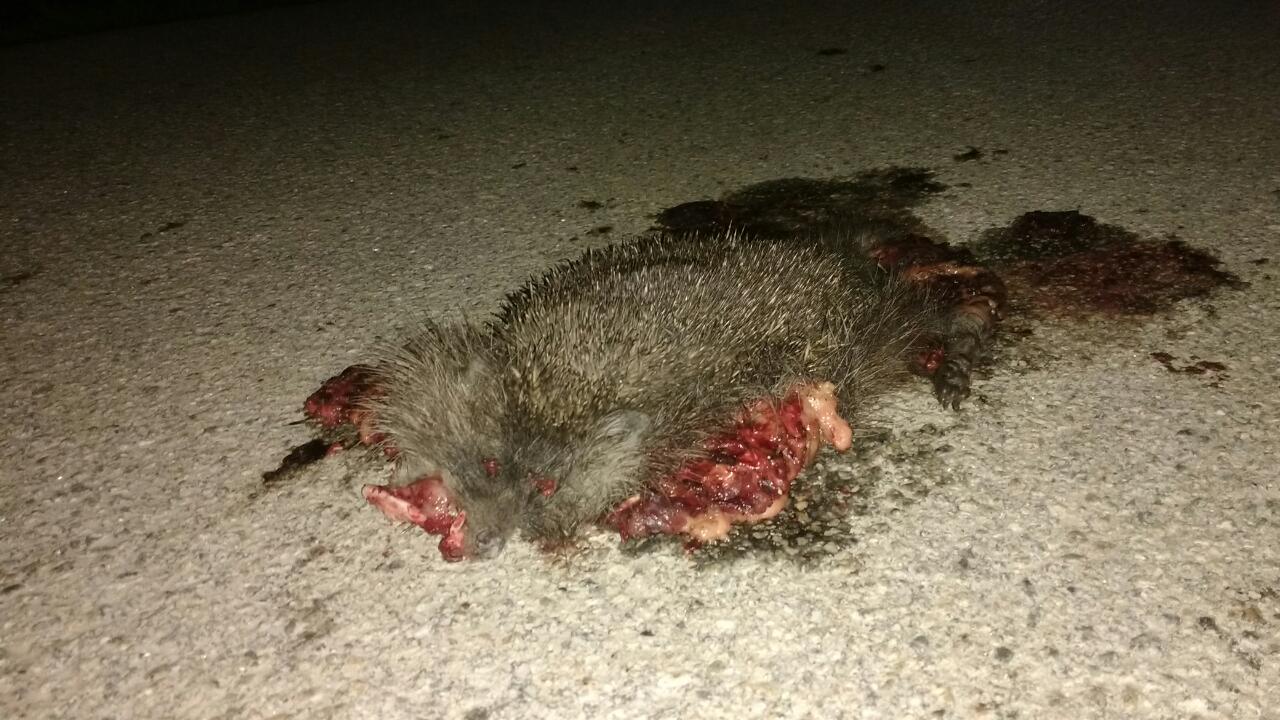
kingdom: Animalia
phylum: Chordata
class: Mammalia
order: Erinaceomorpha
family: Erinaceidae
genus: Erinaceus
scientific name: Erinaceus
